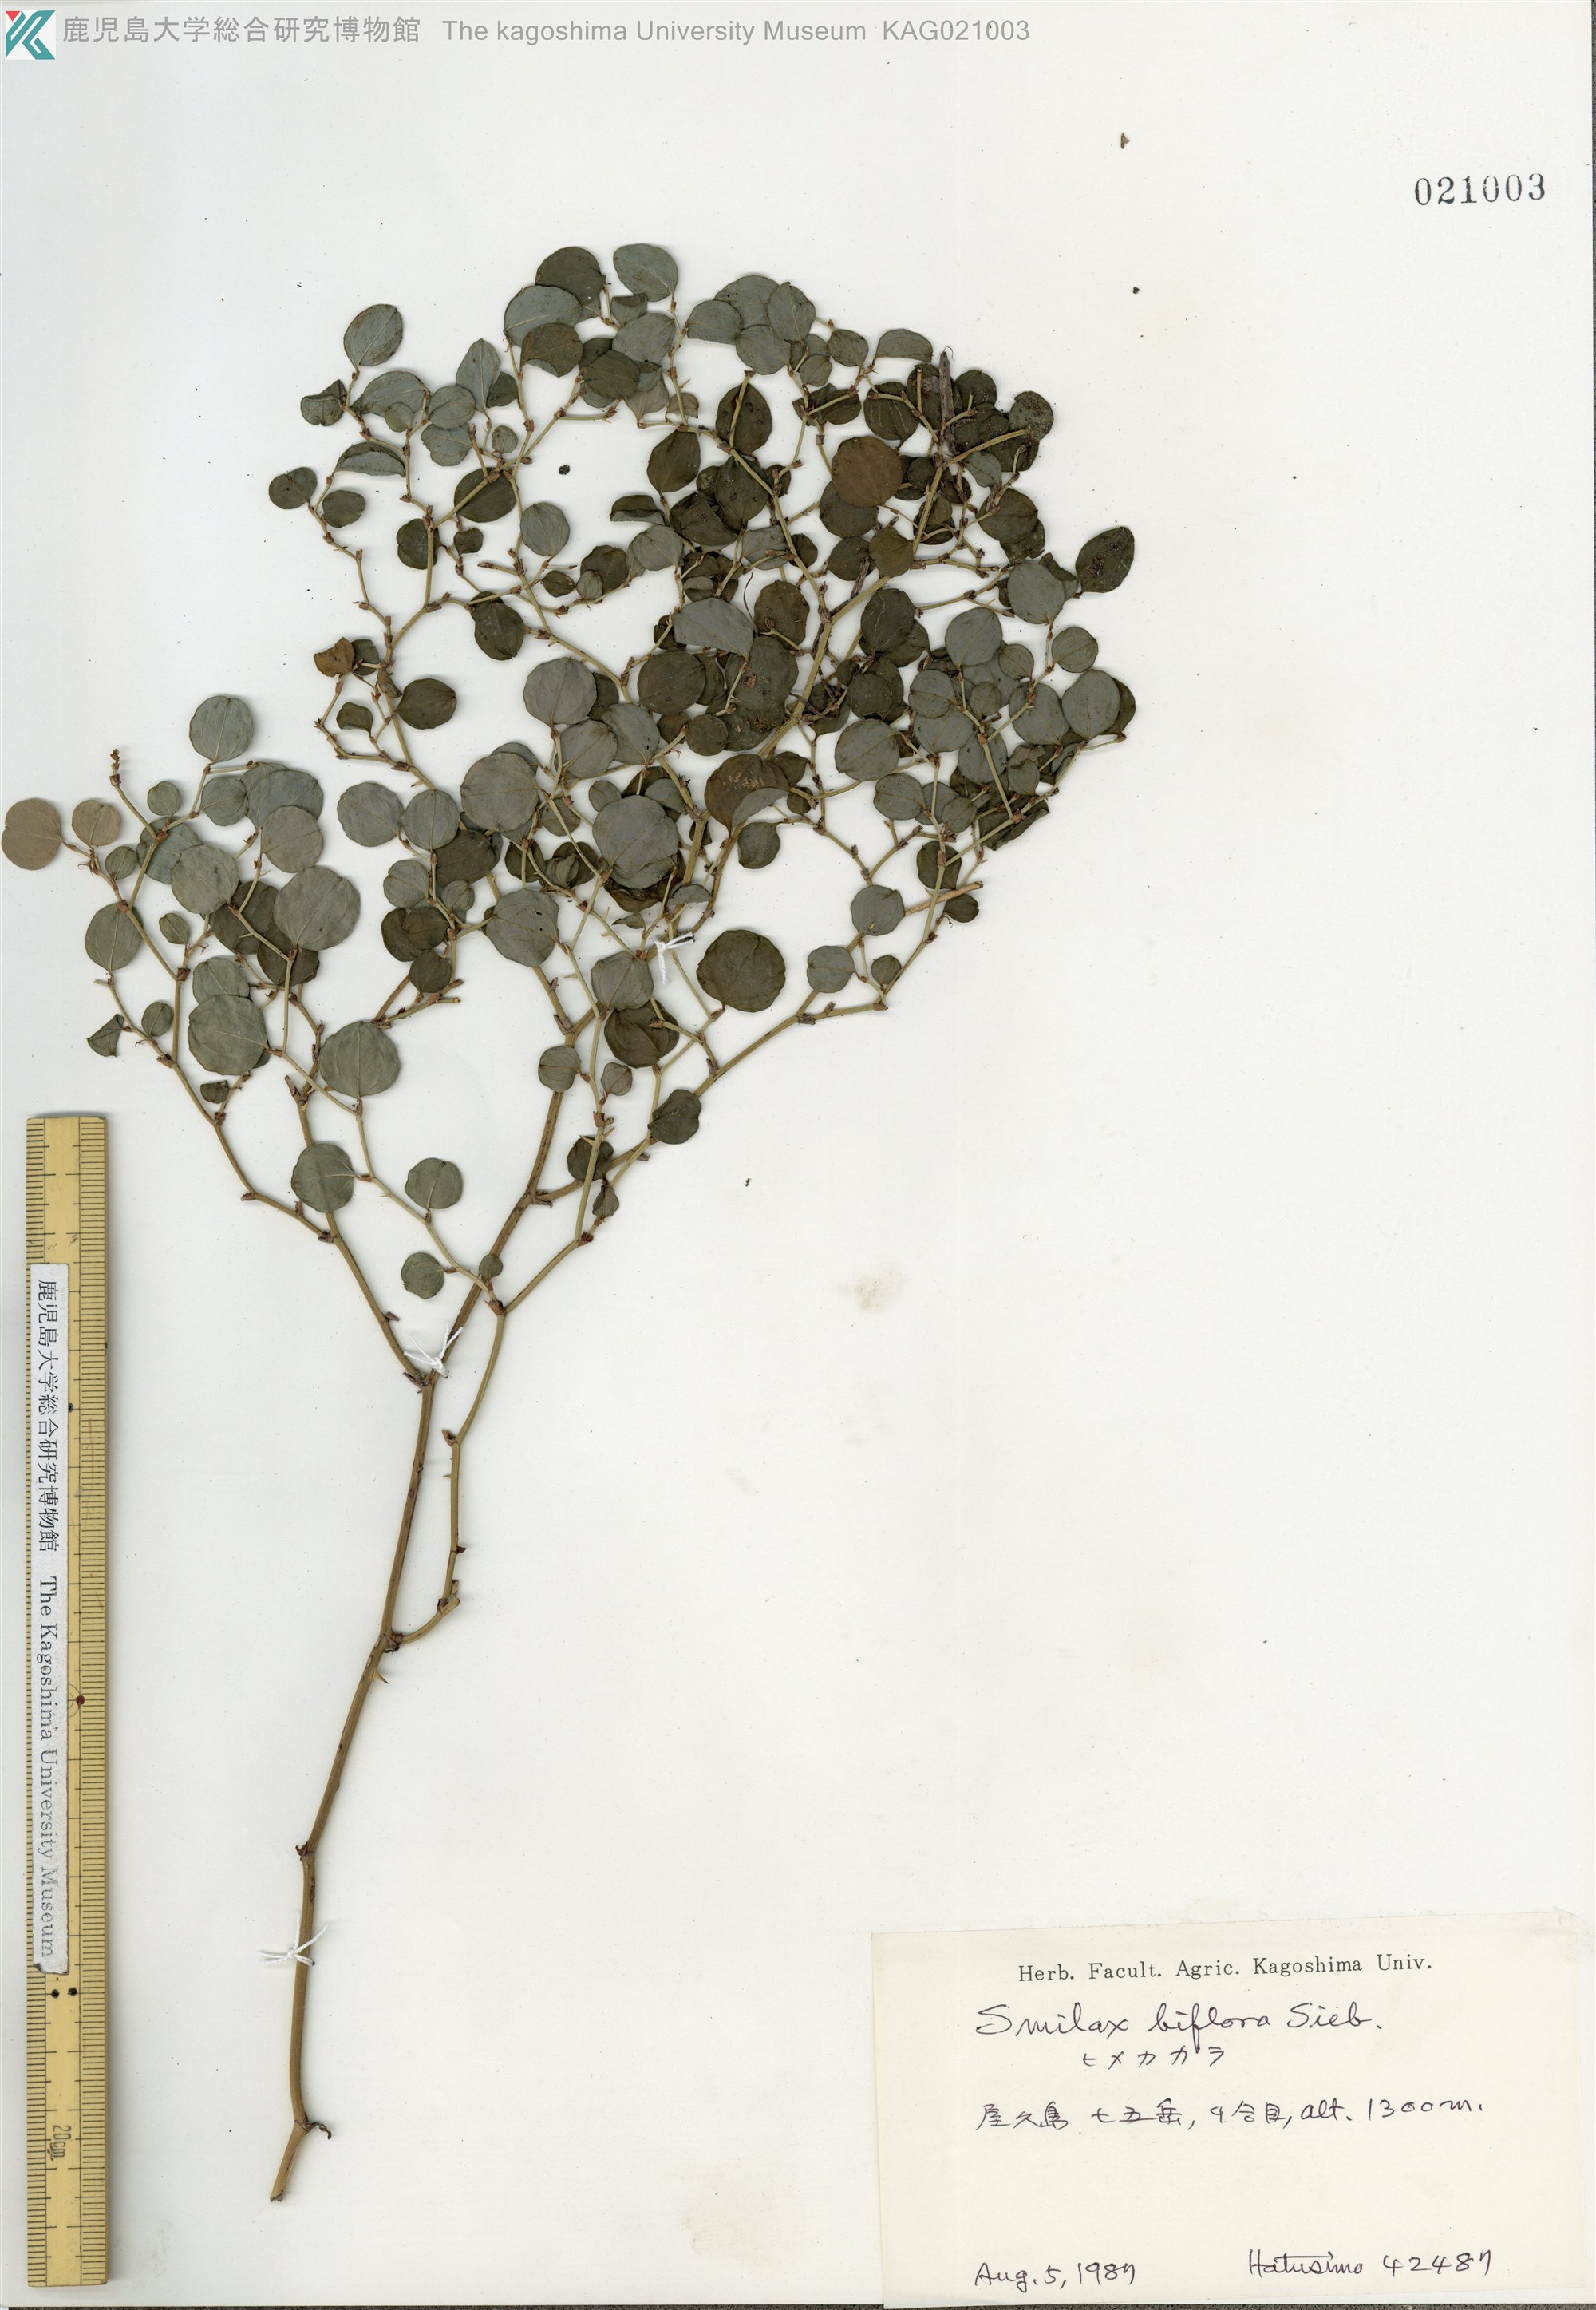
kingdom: Plantae
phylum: Tracheophyta
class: Liliopsida
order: Liliales
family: Smilacaceae
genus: Smilax
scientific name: Smilax biflora
